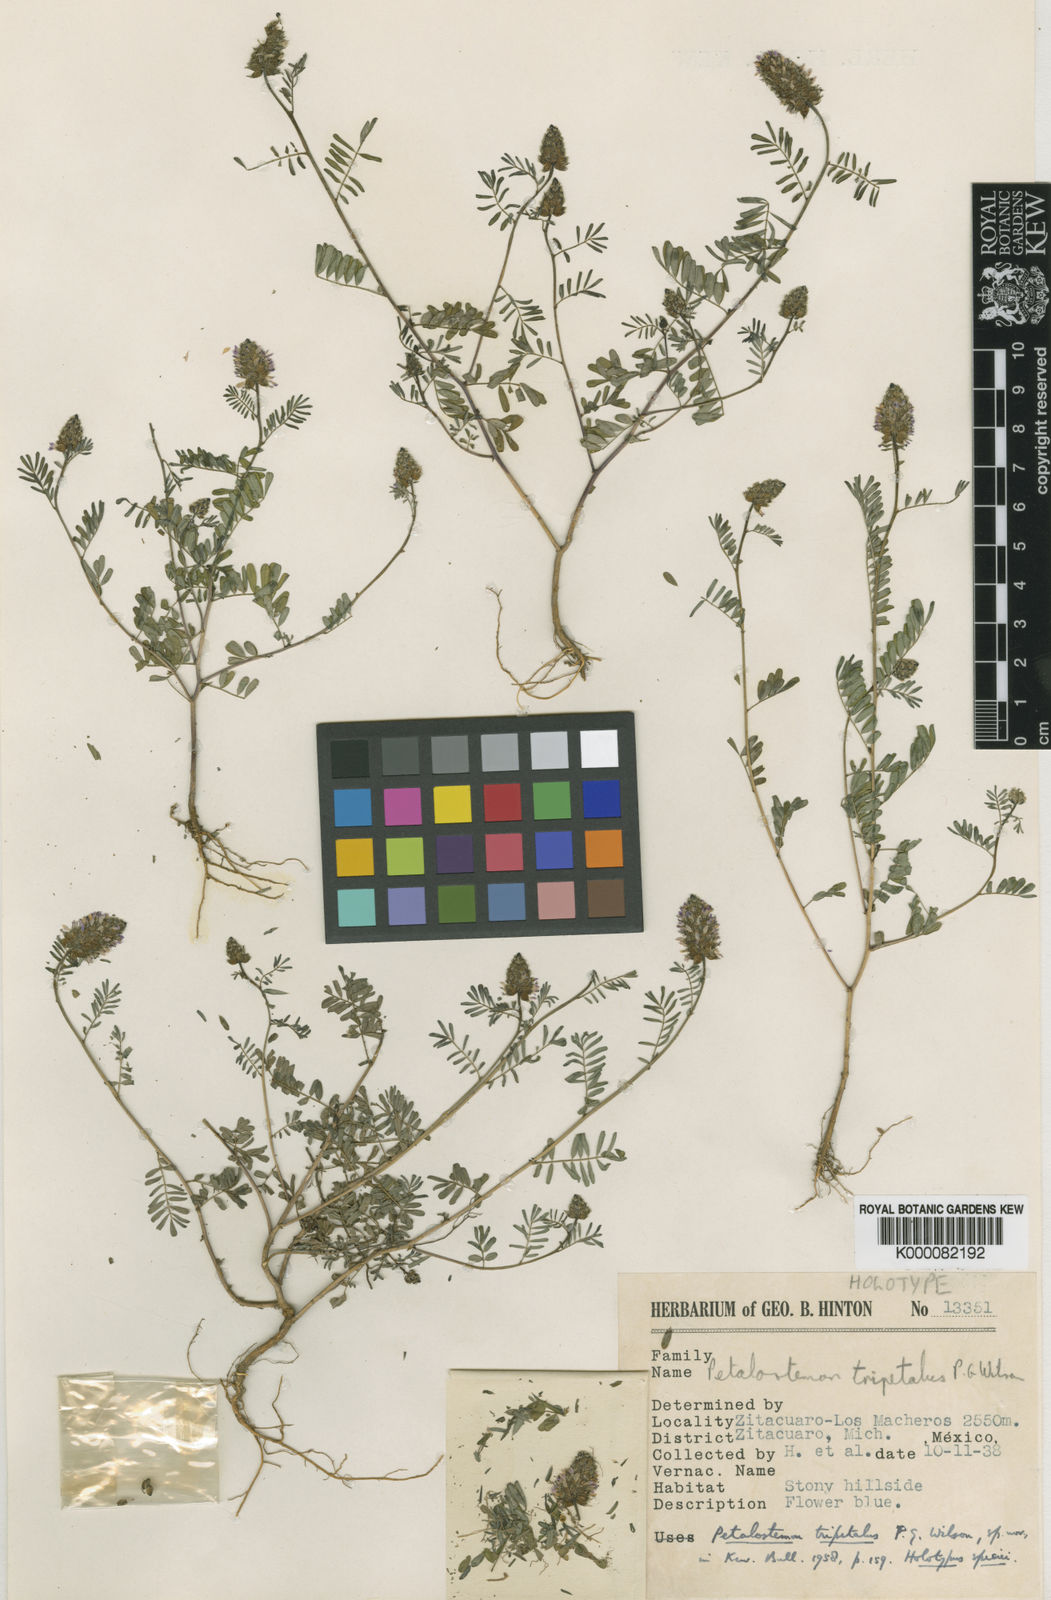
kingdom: Plantae
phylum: Tracheophyta
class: Magnoliopsida
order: Fabales
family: Fabaceae
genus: Dalea
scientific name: Dalea urceolata
